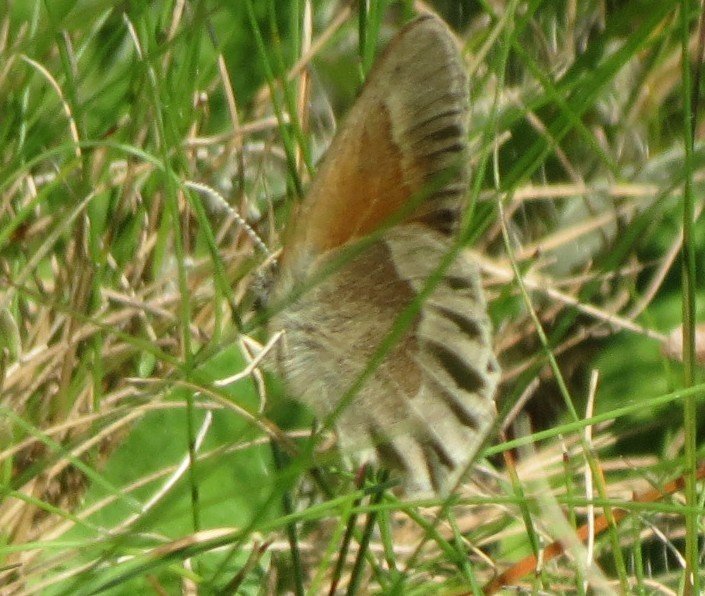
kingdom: Animalia
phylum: Arthropoda
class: Insecta
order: Lepidoptera
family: Nymphalidae
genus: Coenonympha
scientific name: Coenonympha tullia
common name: Large Heath
